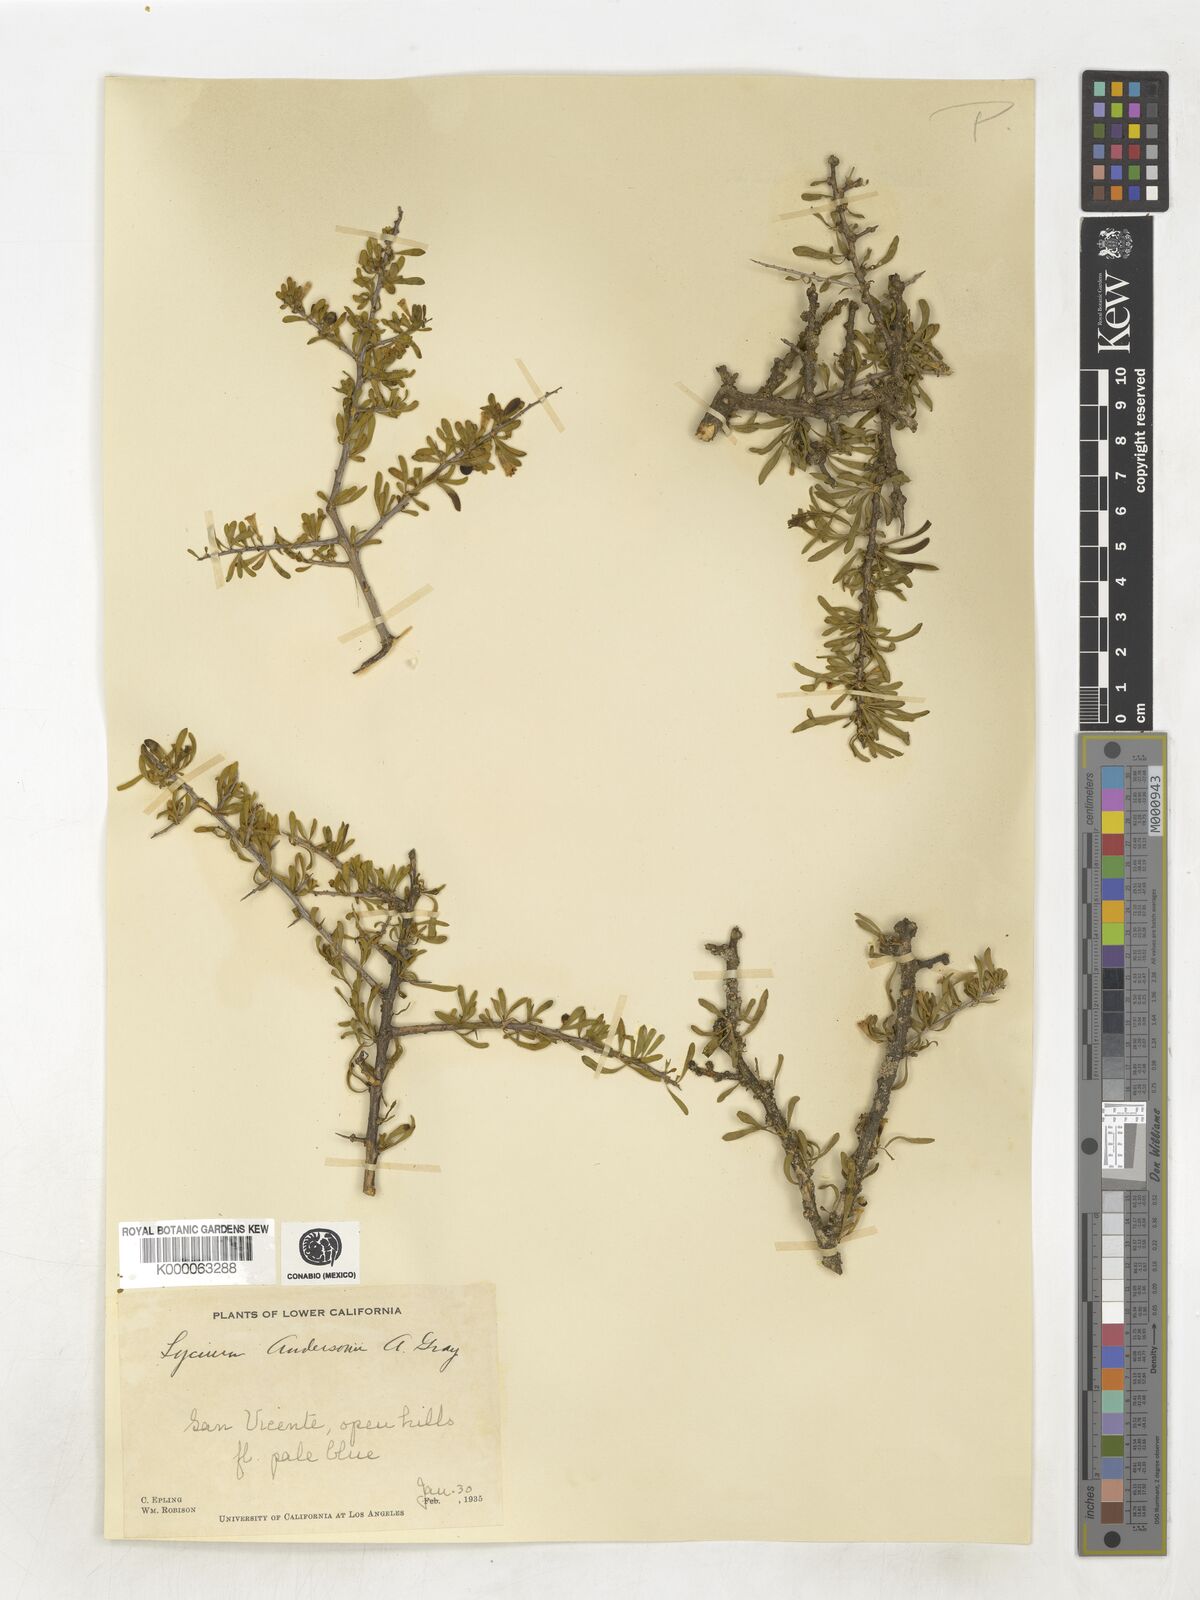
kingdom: Plantae
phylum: Tracheophyta
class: Magnoliopsida
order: Solanales
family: Solanaceae
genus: Lycium
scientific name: Lycium andersonii
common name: Water-jacket
